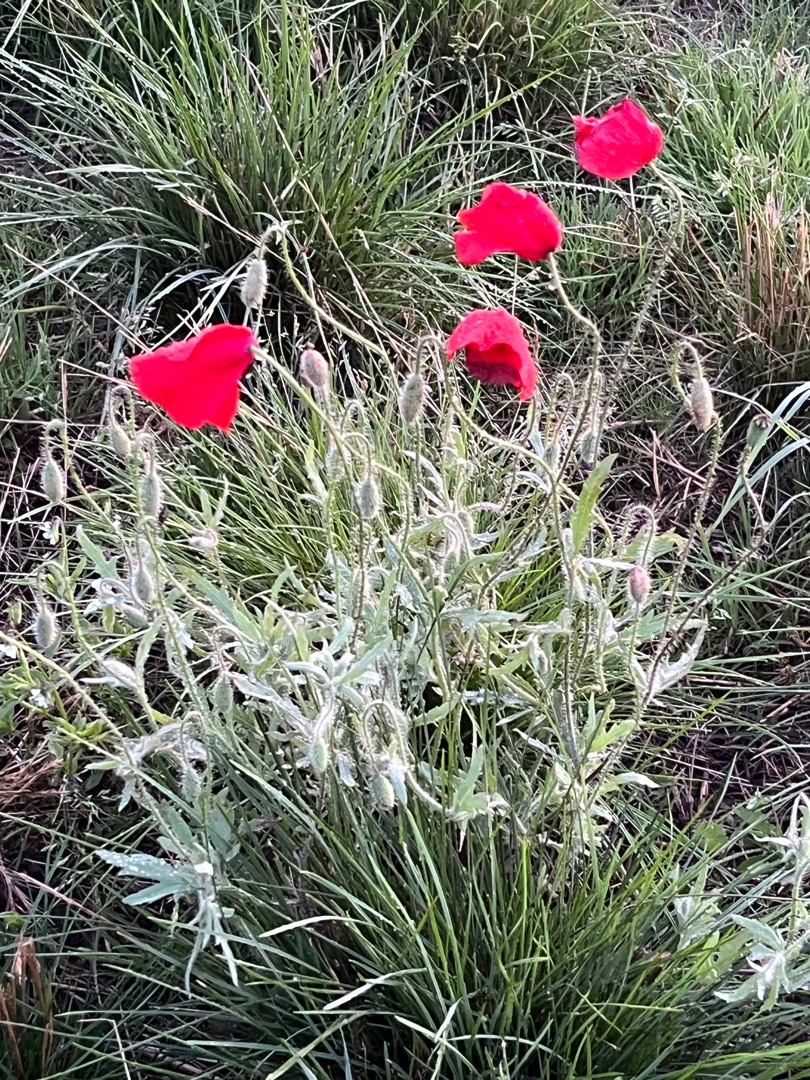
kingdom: Plantae
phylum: Tracheophyta
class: Magnoliopsida
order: Ranunculales
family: Papaveraceae
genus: Papaver
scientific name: Papaver rhoeas
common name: Korn-valmue
